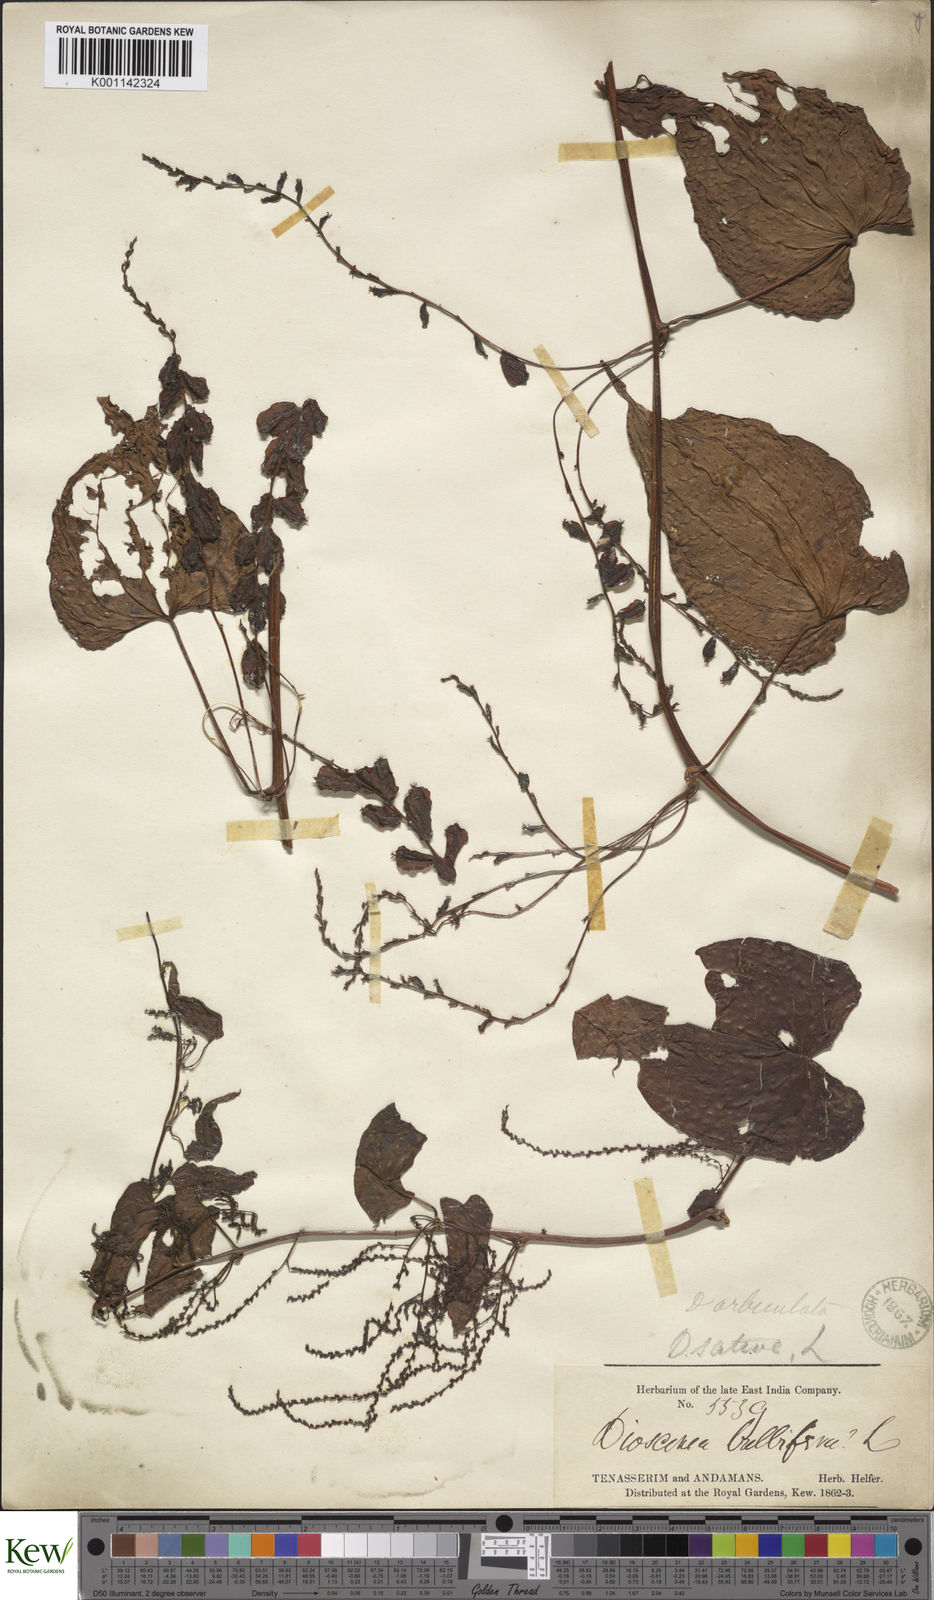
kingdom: Plantae
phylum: Tracheophyta
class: Liliopsida
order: Dioscoreales
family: Dioscoreaceae
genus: Dioscorea
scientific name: Dioscorea bulbifera
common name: Air yam
